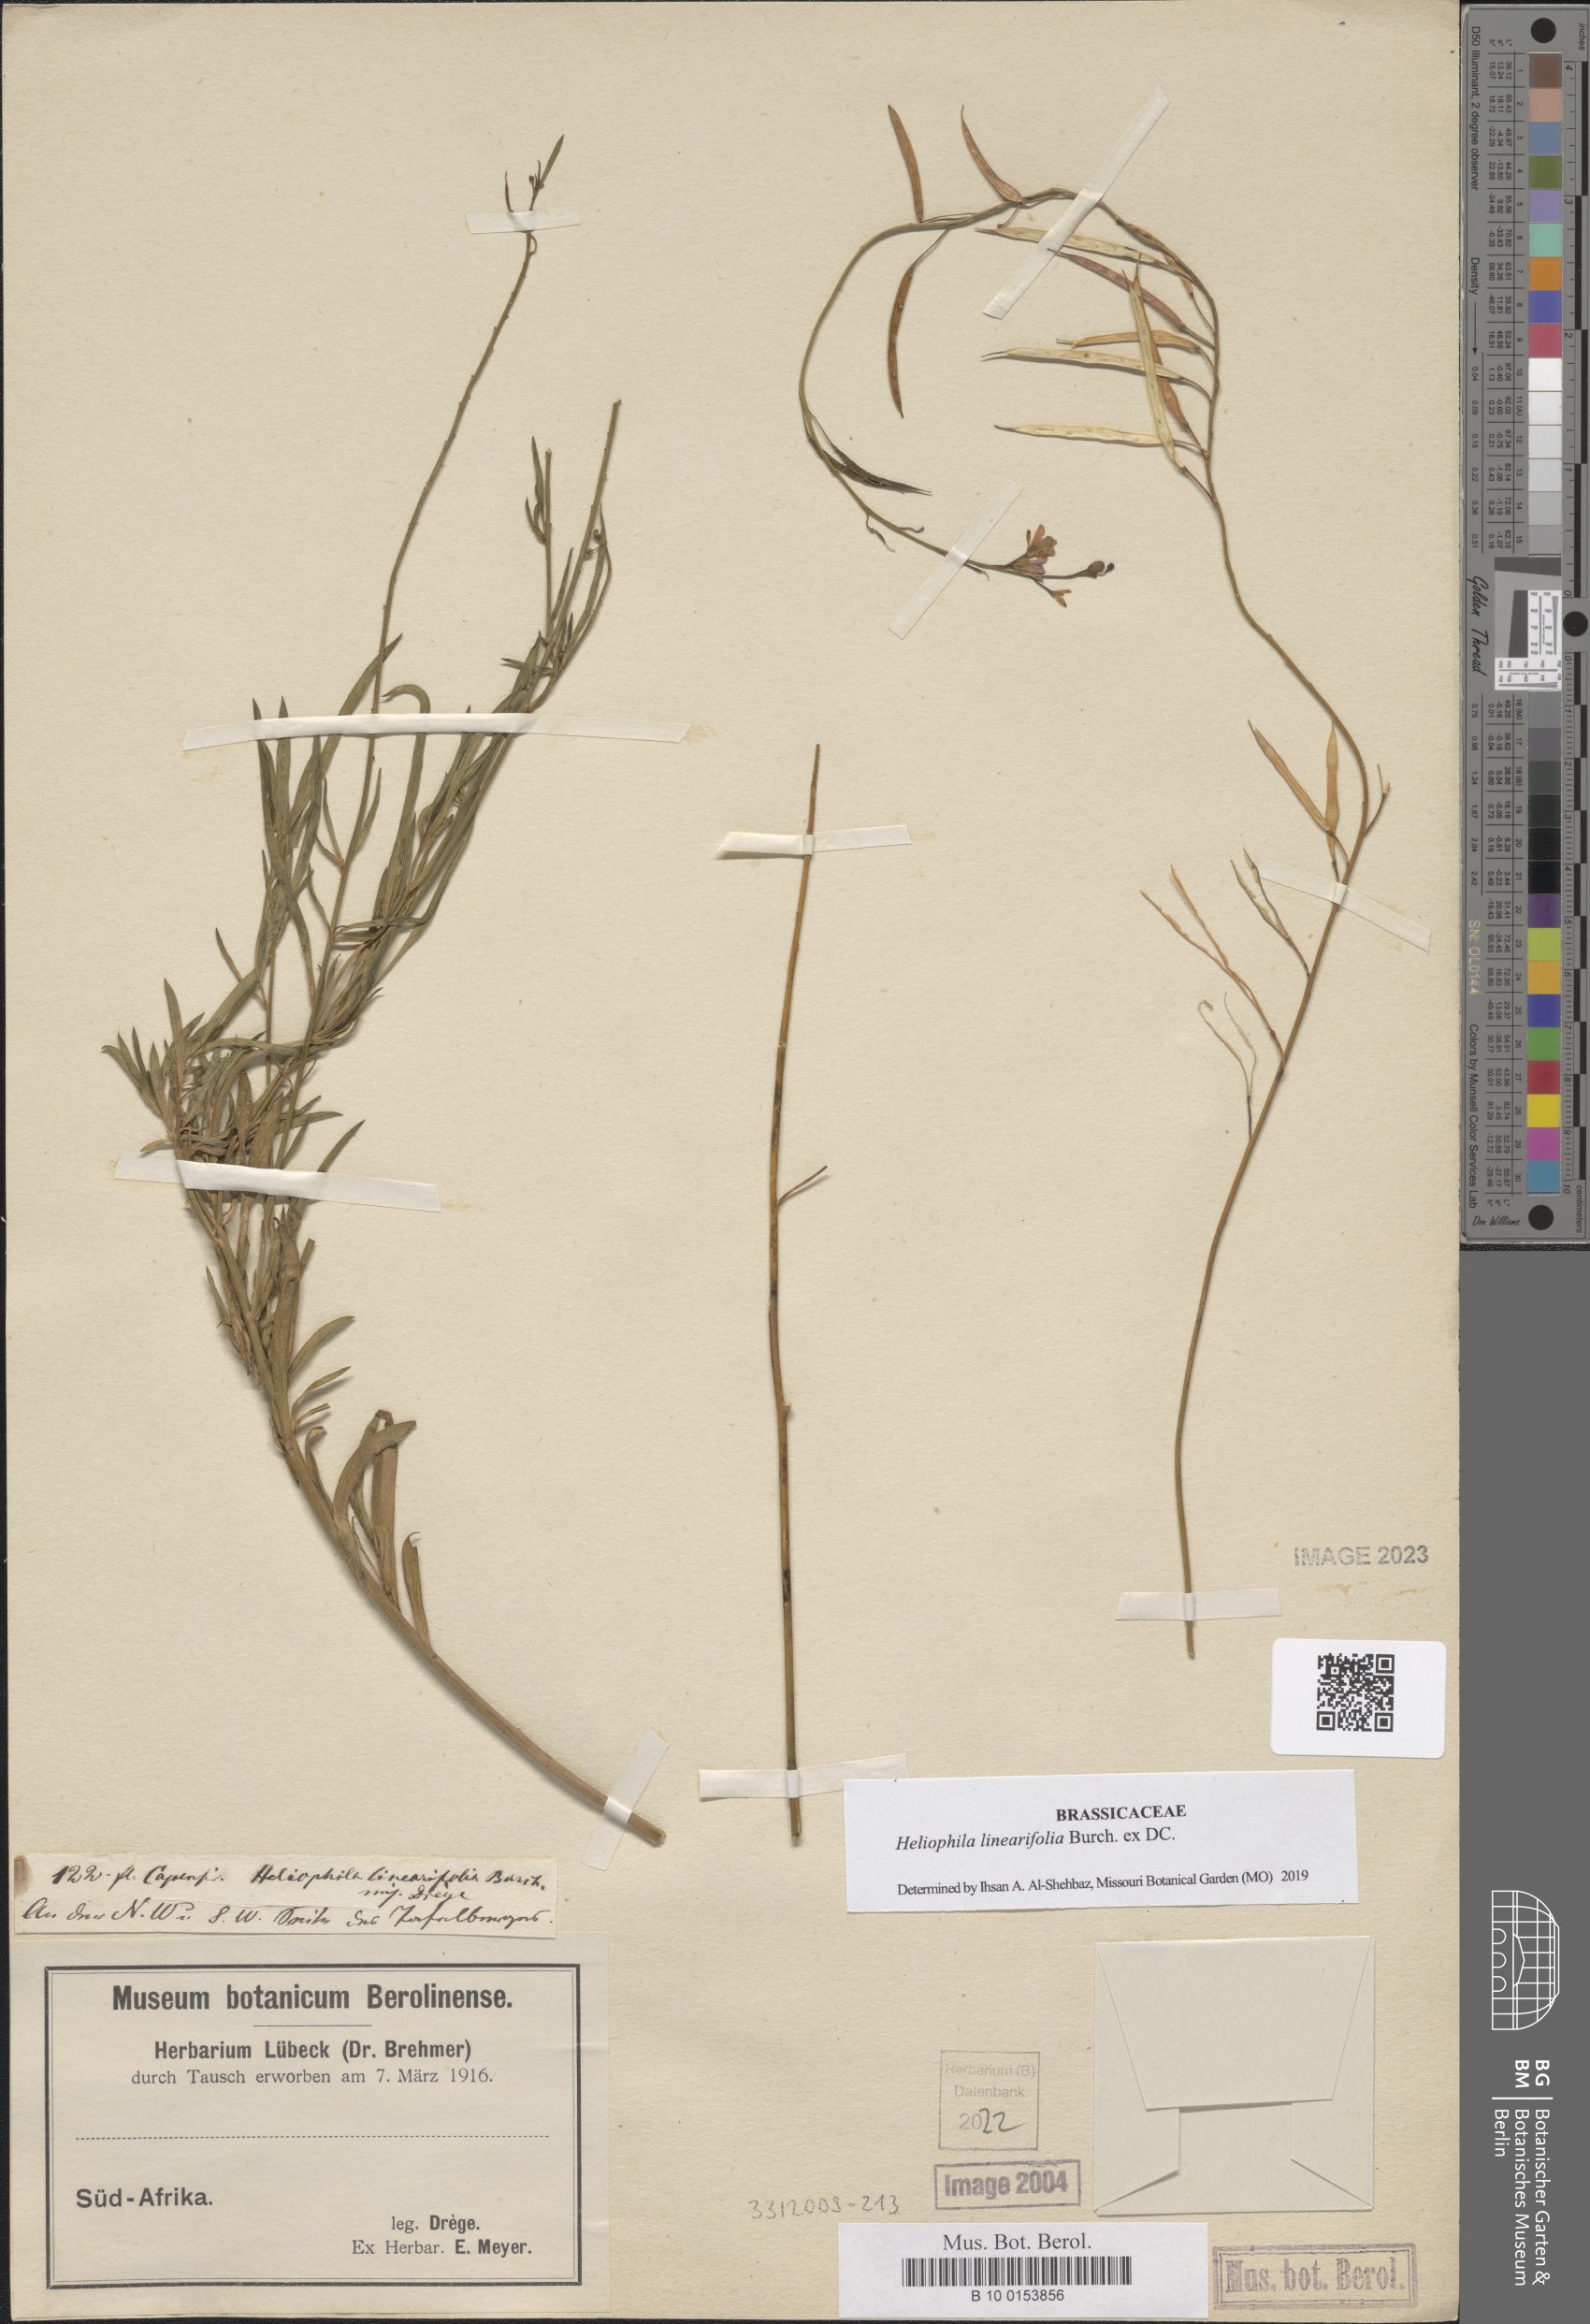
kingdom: Plantae
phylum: Tracheophyta
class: Magnoliopsida
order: Brassicales
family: Brassicaceae
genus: Heliophila
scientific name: Heliophila linearis
